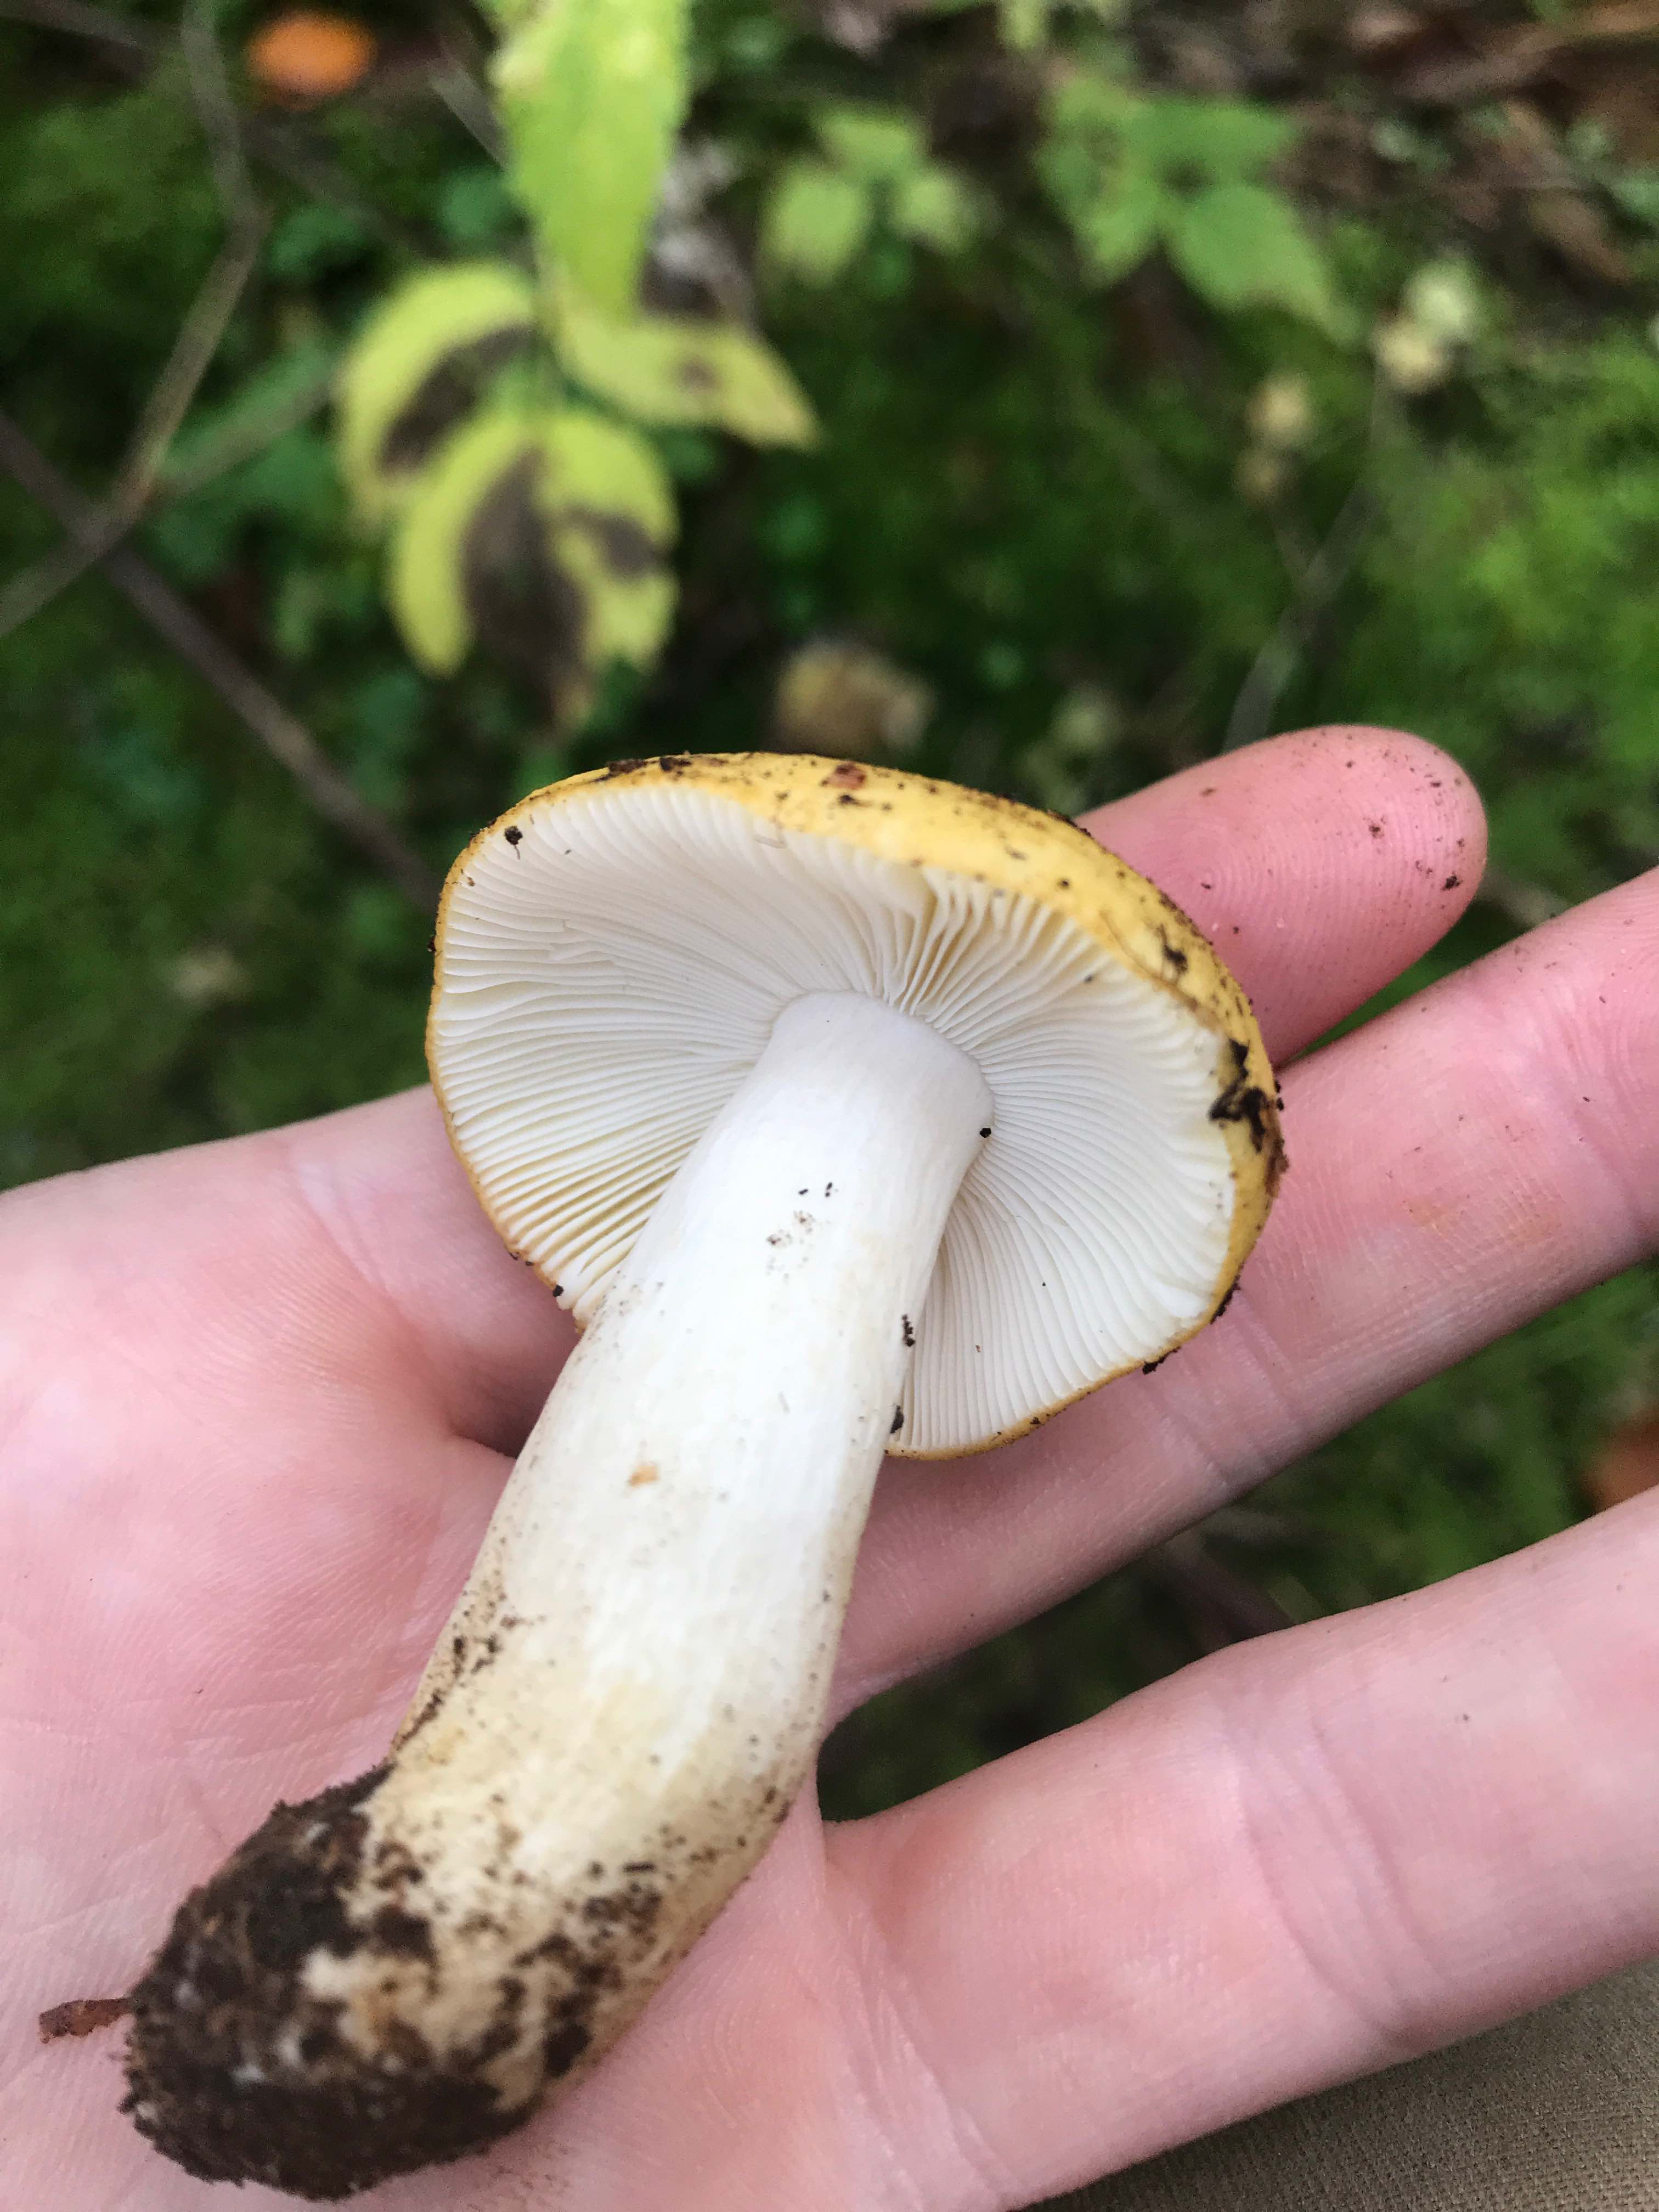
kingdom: Fungi
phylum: Basidiomycota
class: Agaricomycetes
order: Russulales
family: Russulaceae
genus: Russula
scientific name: Russula ochroleuca
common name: okkergul skørhat
